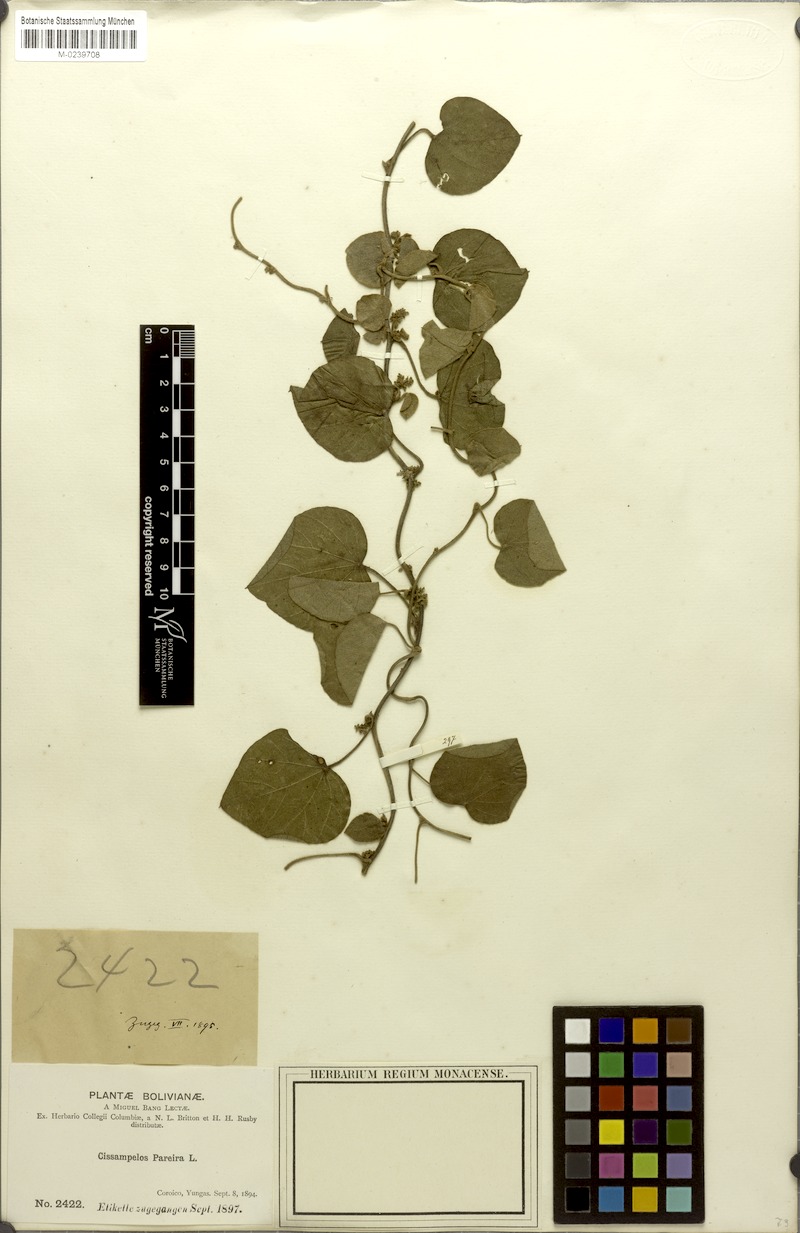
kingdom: Plantae
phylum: Tracheophyta
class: Magnoliopsida
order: Ranunculales
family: Menispermaceae
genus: Cissampelos
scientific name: Cissampelos pareira
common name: Velvetleaf
